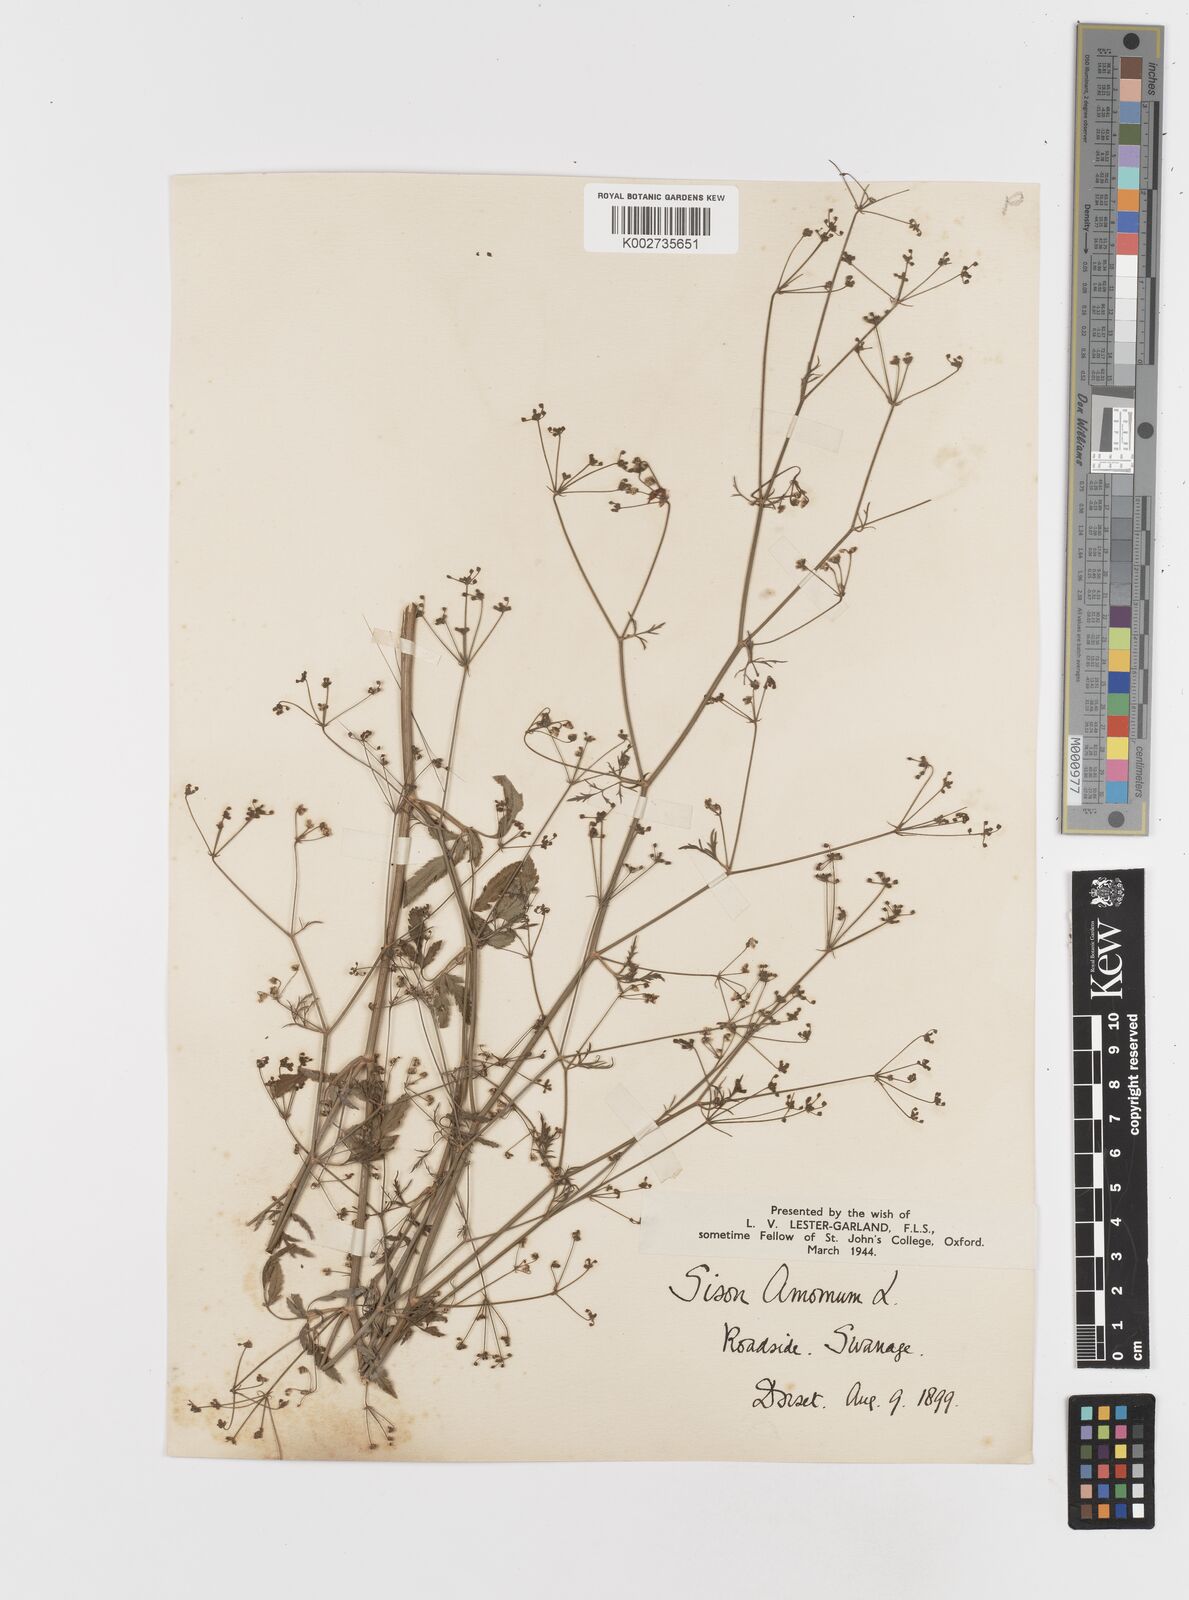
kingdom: Plantae
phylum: Tracheophyta
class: Magnoliopsida
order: Apiales
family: Apiaceae
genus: Sison
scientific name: Sison amomum
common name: Stone-parsley
